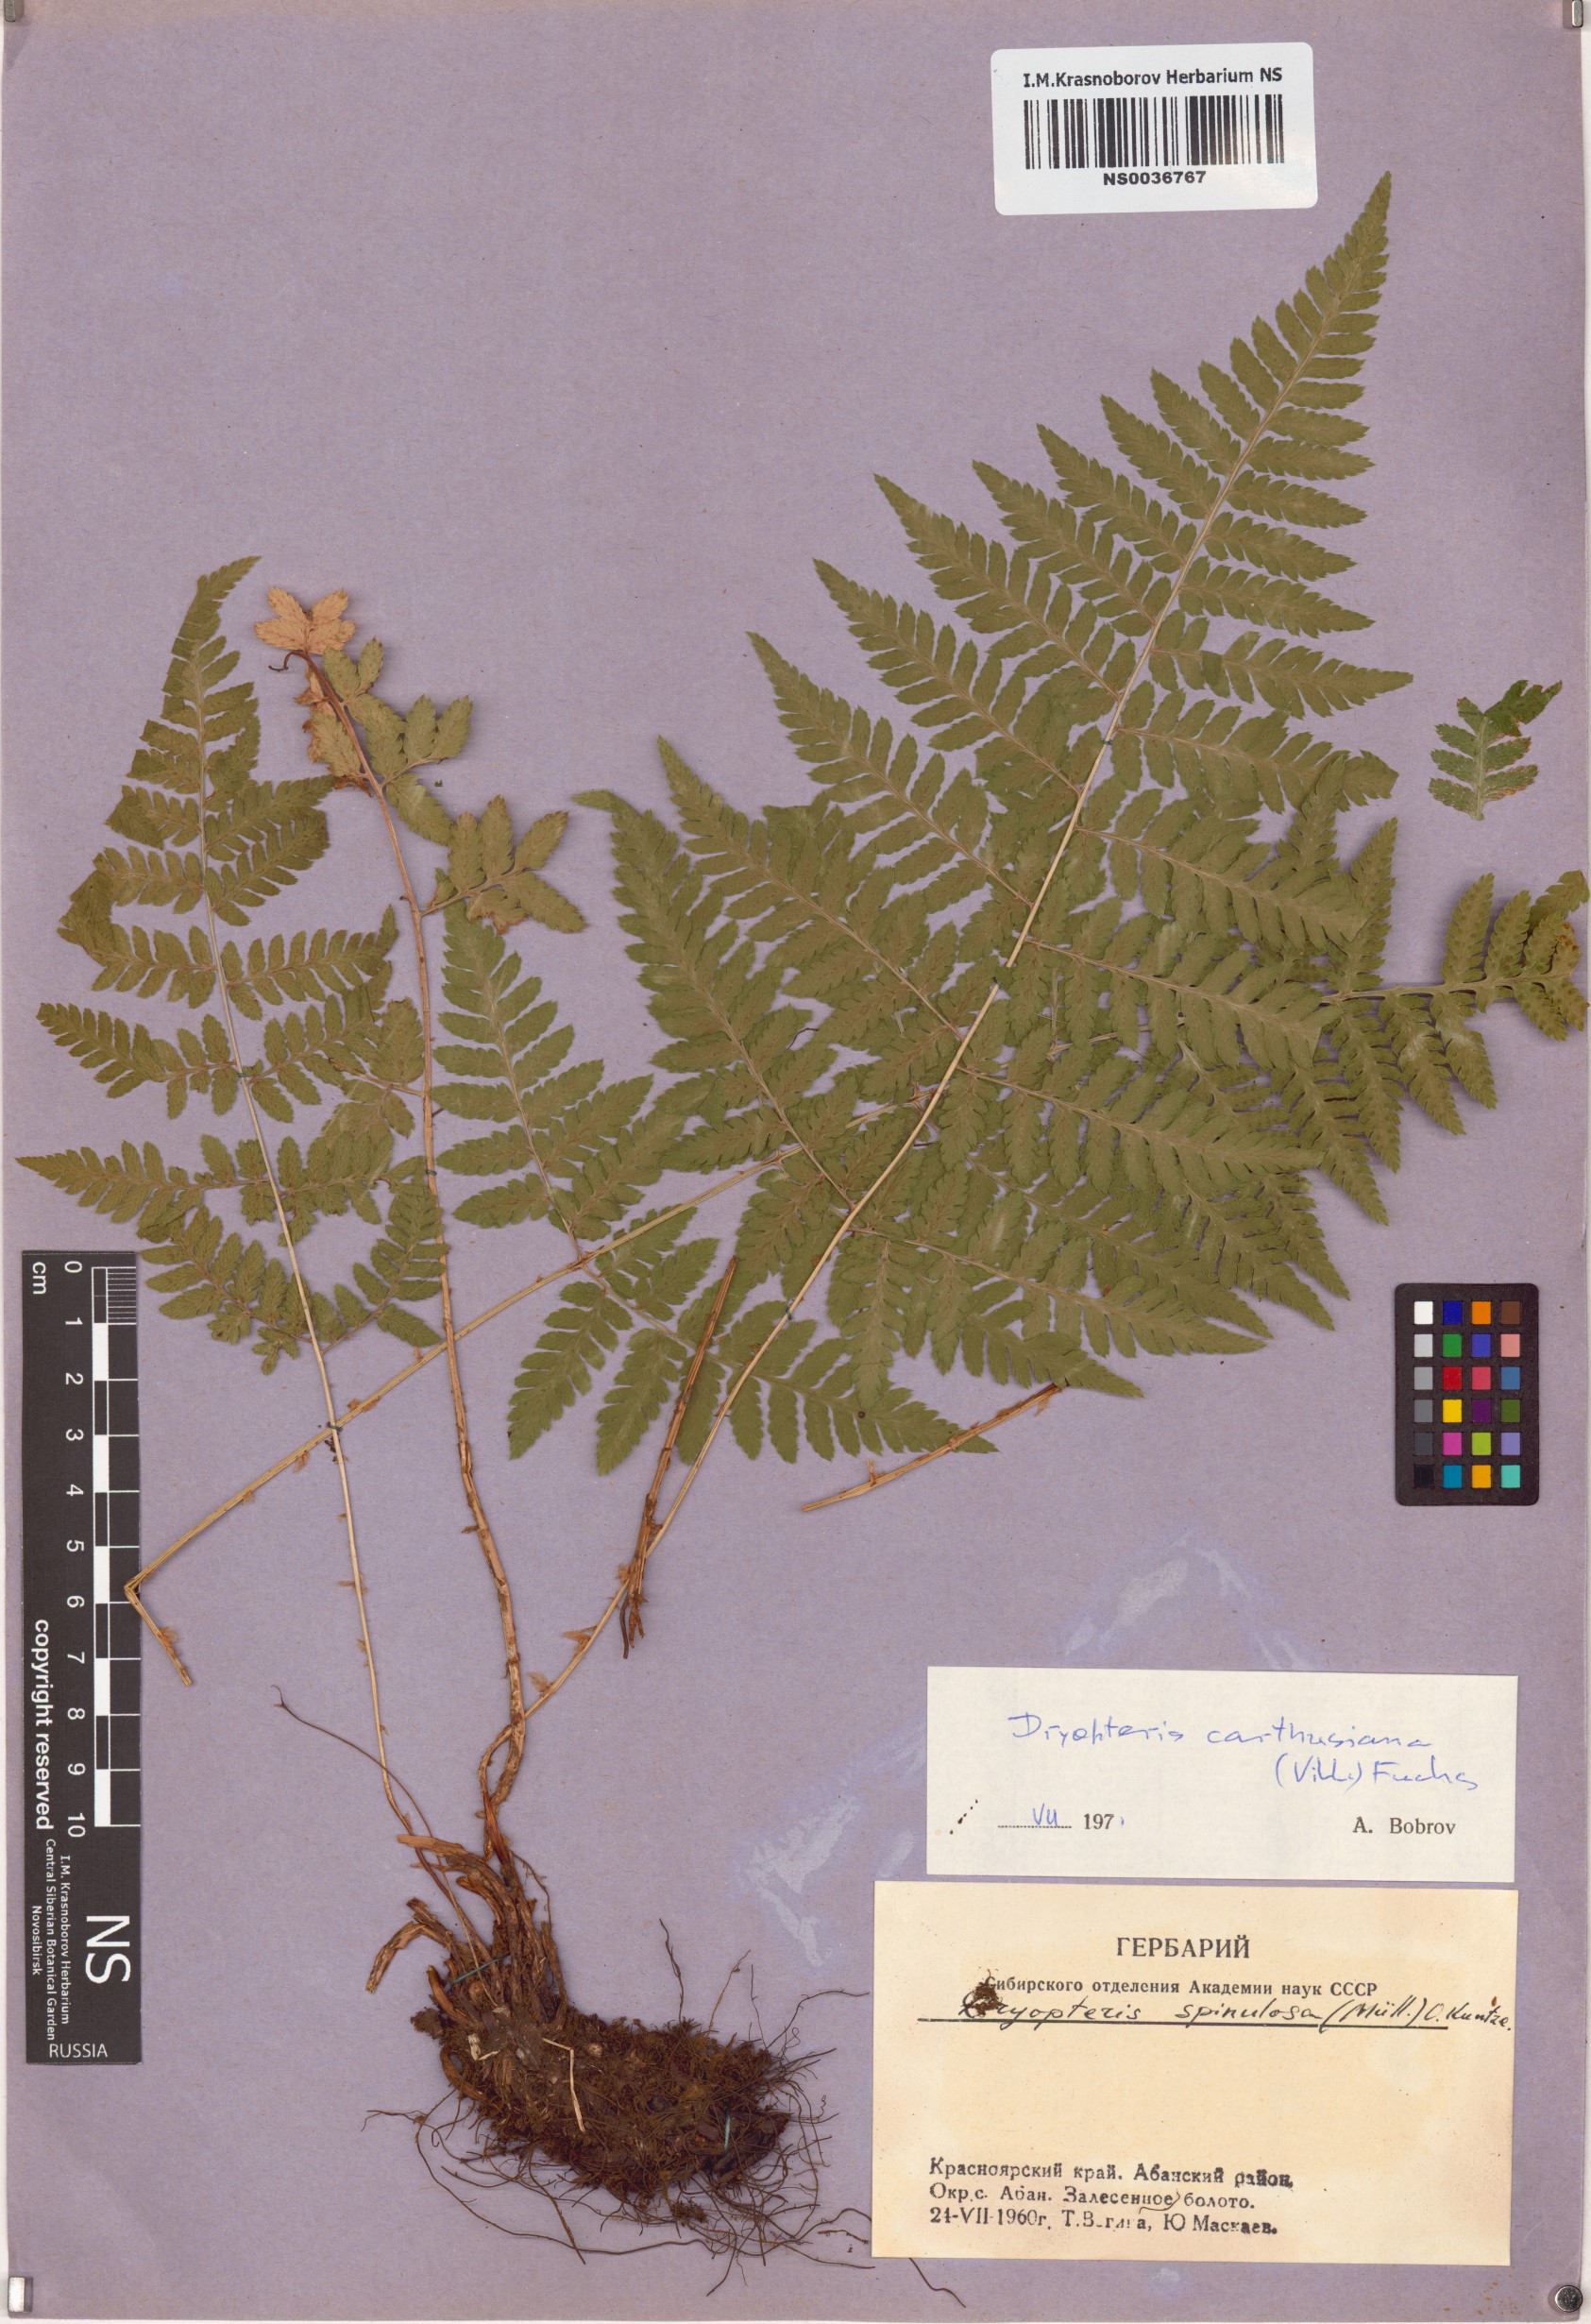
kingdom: Plantae
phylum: Tracheophyta
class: Polypodiopsida
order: Polypodiales
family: Dryopteridaceae
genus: Dryopteris
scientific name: Dryopteris carthusiana
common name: Narrow buckler-fern
